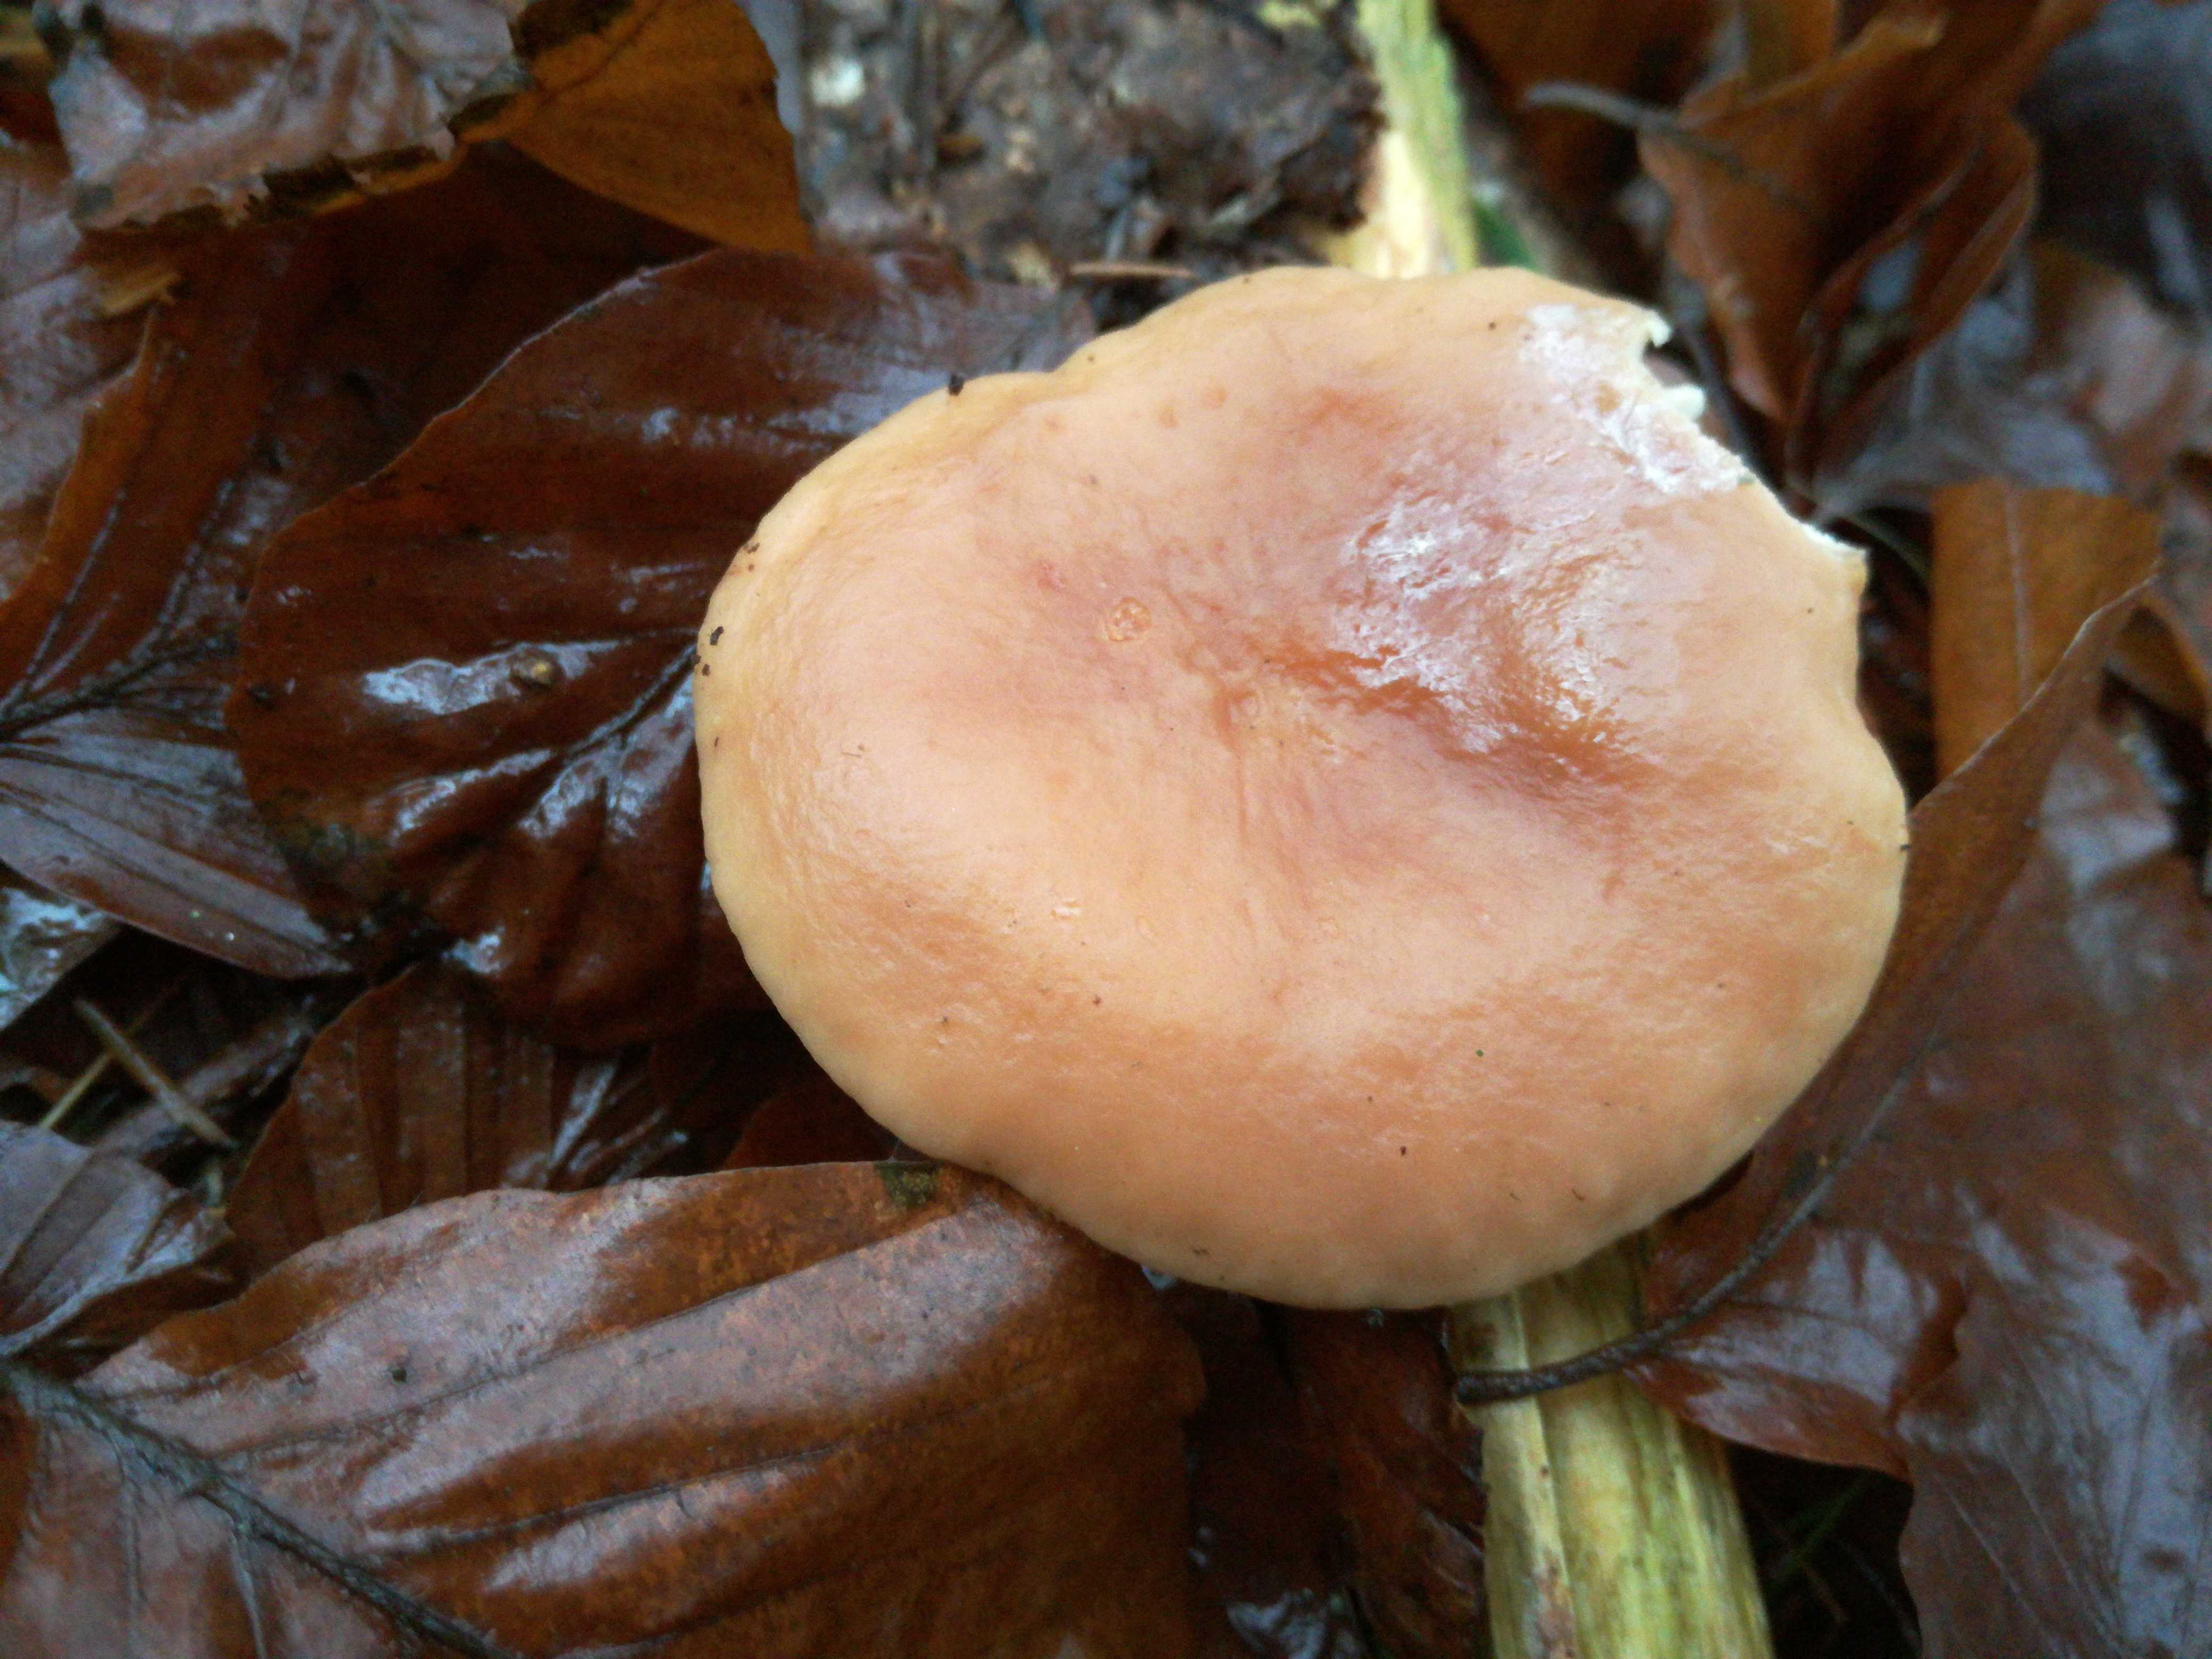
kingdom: Fungi
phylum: Basidiomycota
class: Agaricomycetes
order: Russulales
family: Russulaceae
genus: Lactarius
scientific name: Lactarius subdulcis
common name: sødlig mælkehat
